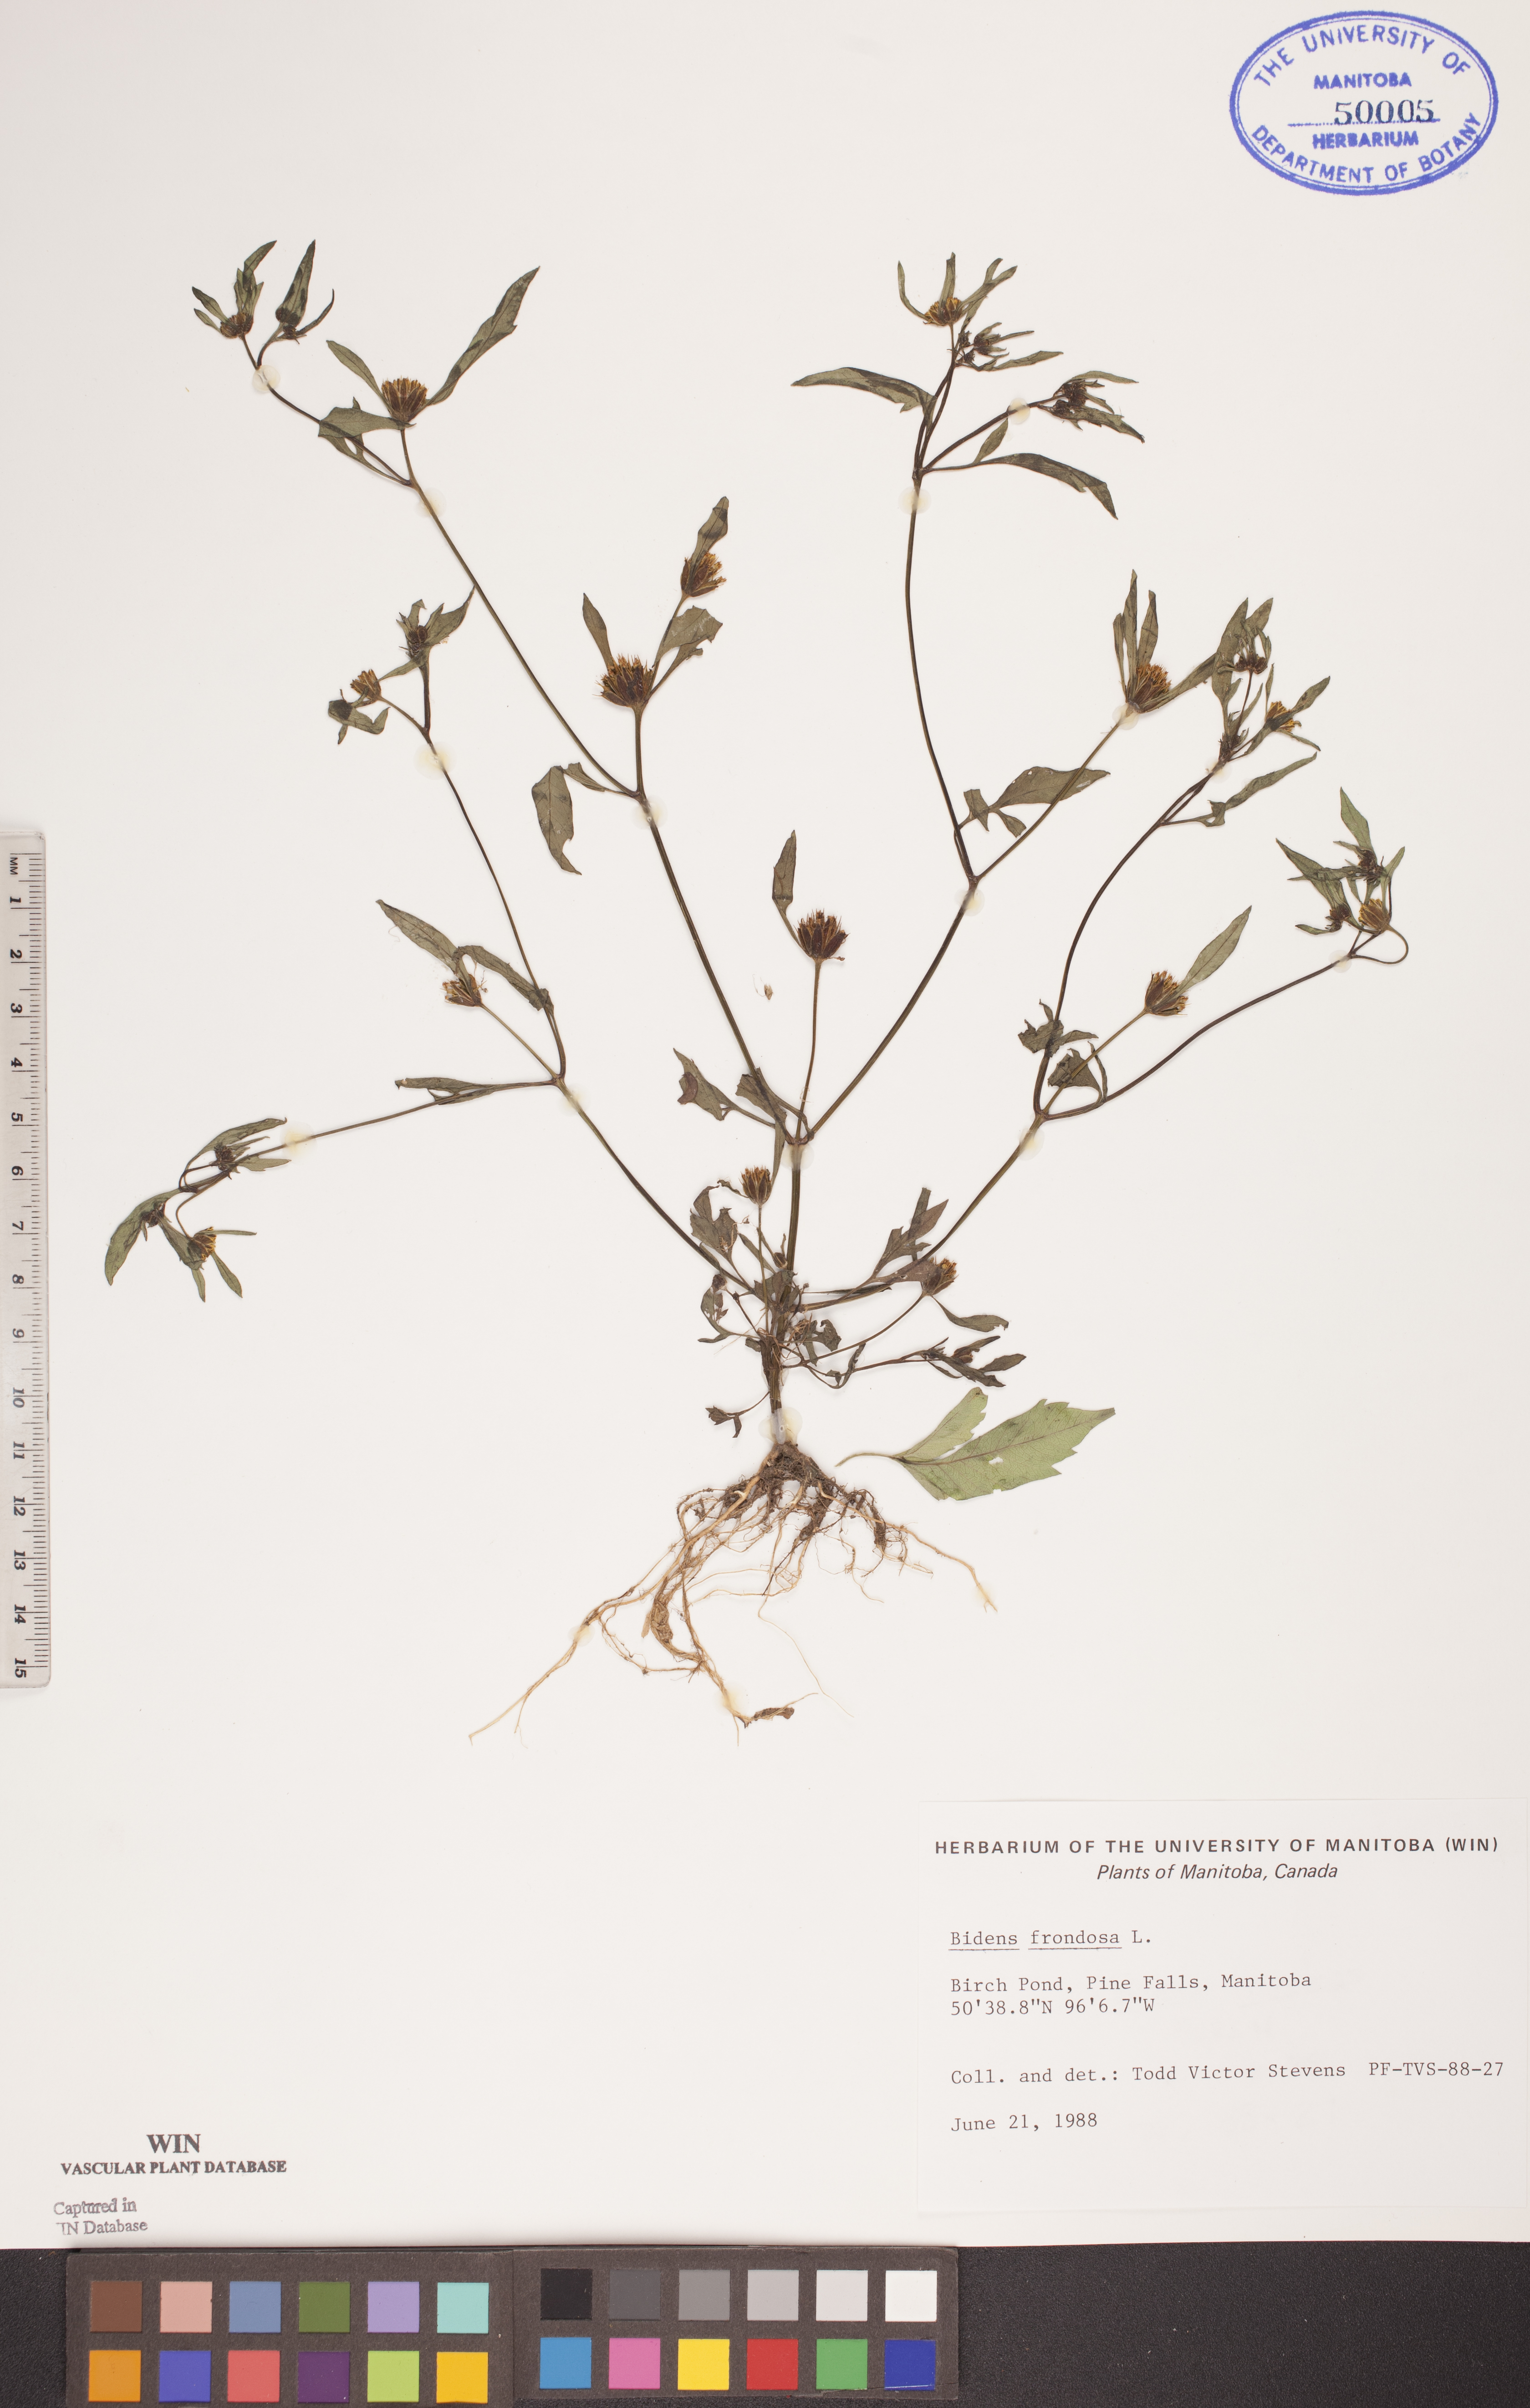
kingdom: Plantae
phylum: Tracheophyta
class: Magnoliopsida
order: Asterales
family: Asteraceae
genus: Bidens
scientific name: Bidens frondosa
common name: Beggarticks
